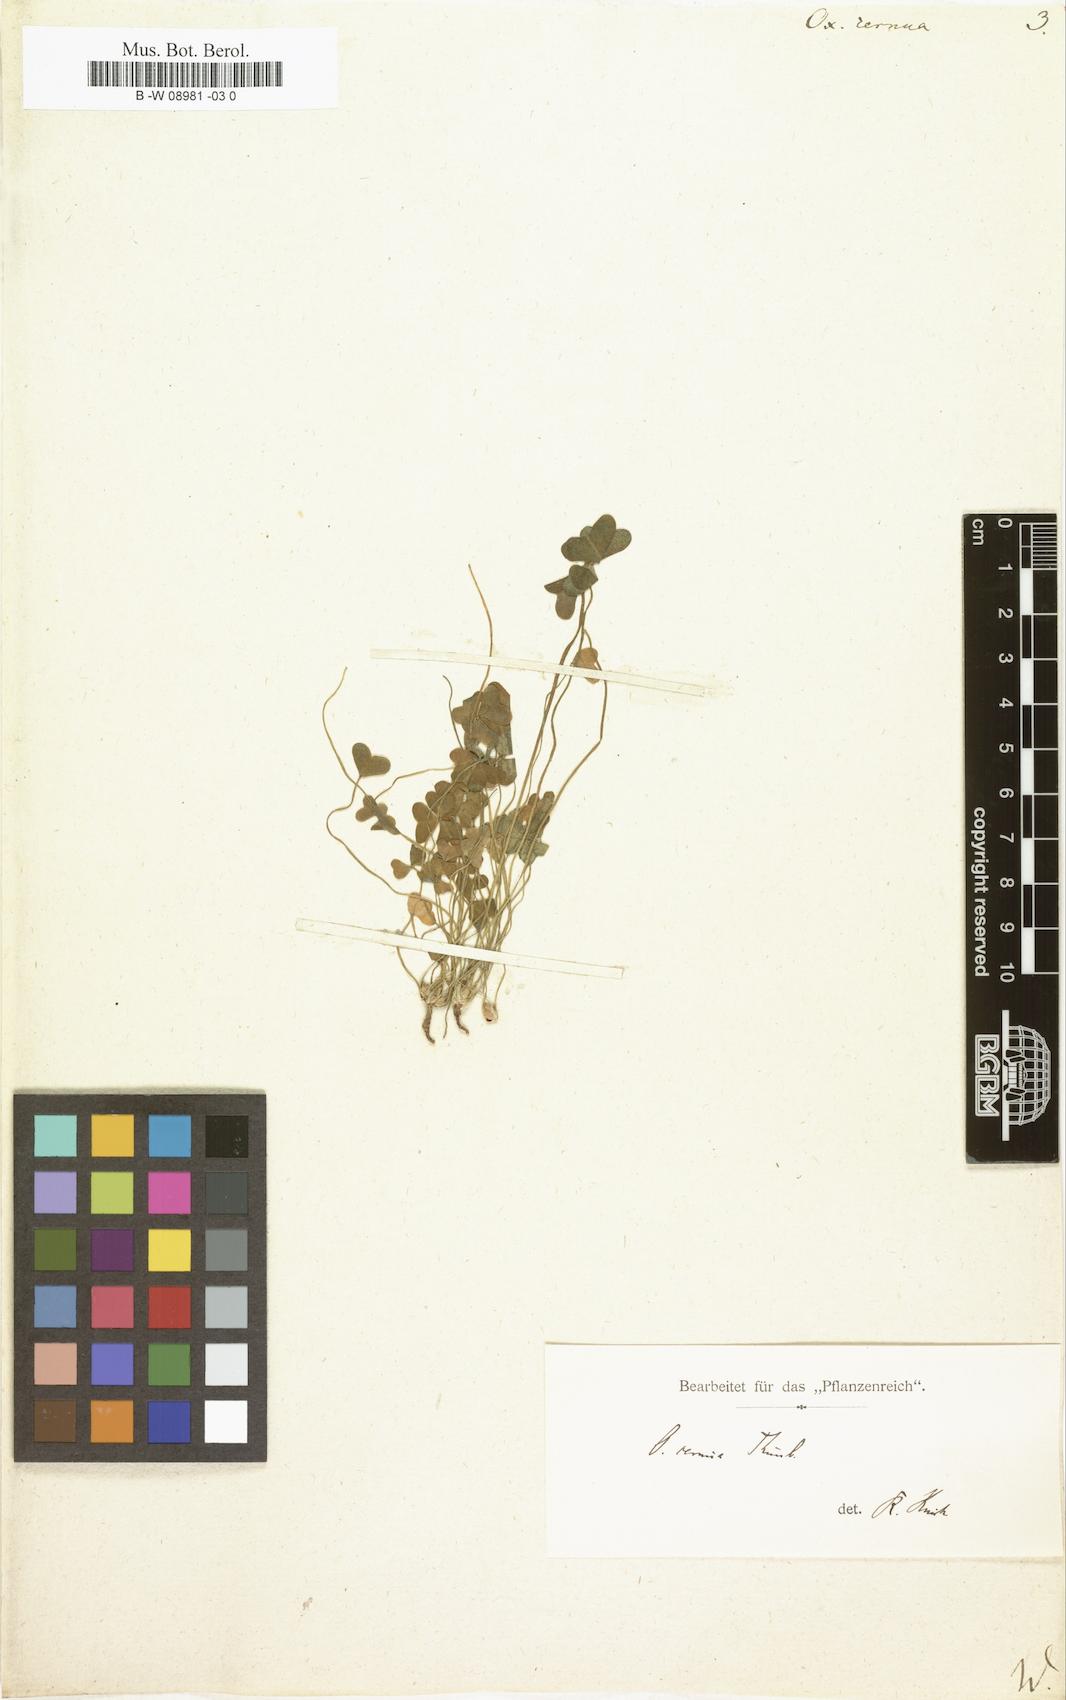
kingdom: Plantae
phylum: Tracheophyta
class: Magnoliopsida
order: Oxalidales
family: Oxalidaceae
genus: Oxalis
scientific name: Oxalis pes-caprae
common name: Bermuda-buttercup
